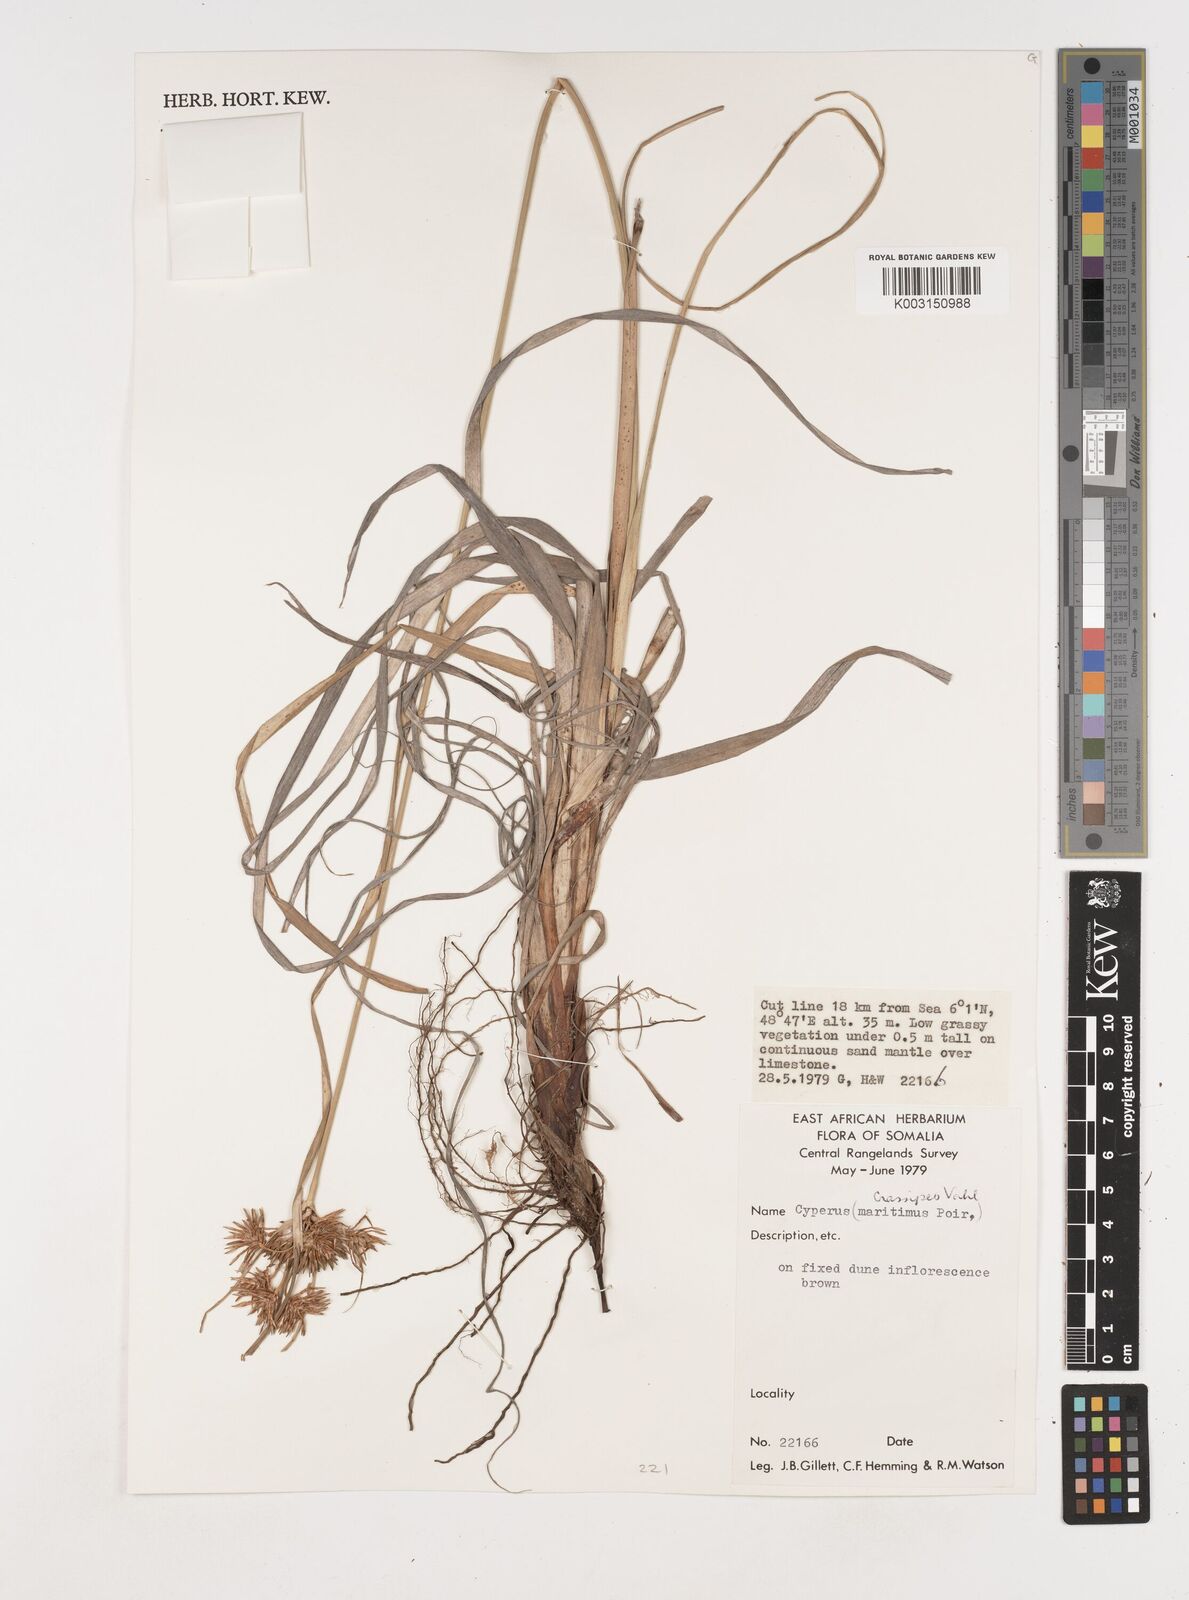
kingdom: Plantae
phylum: Tracheophyta
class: Liliopsida
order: Poales
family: Cyperaceae
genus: Cyperus
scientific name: Cyperus crassipes
